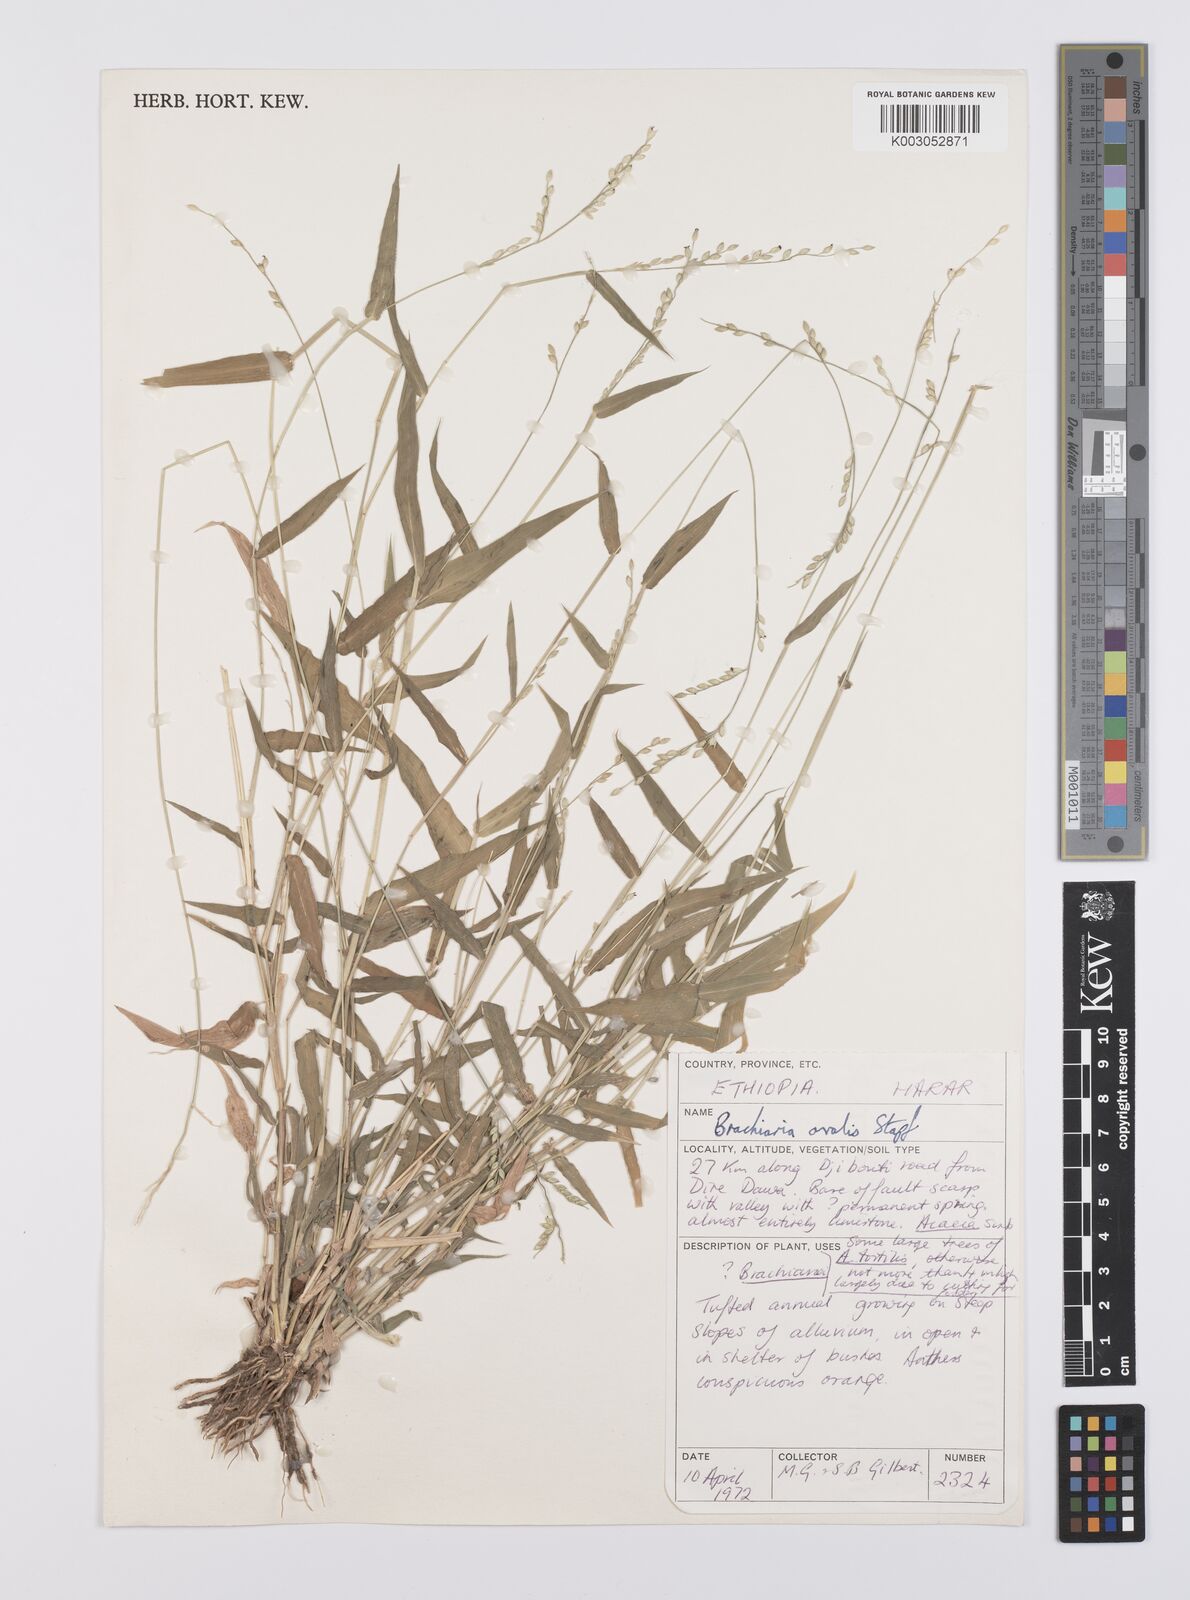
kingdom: Plantae
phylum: Tracheophyta
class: Liliopsida
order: Poales
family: Poaceae
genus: Urochloa
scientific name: Urochloa ovalis
